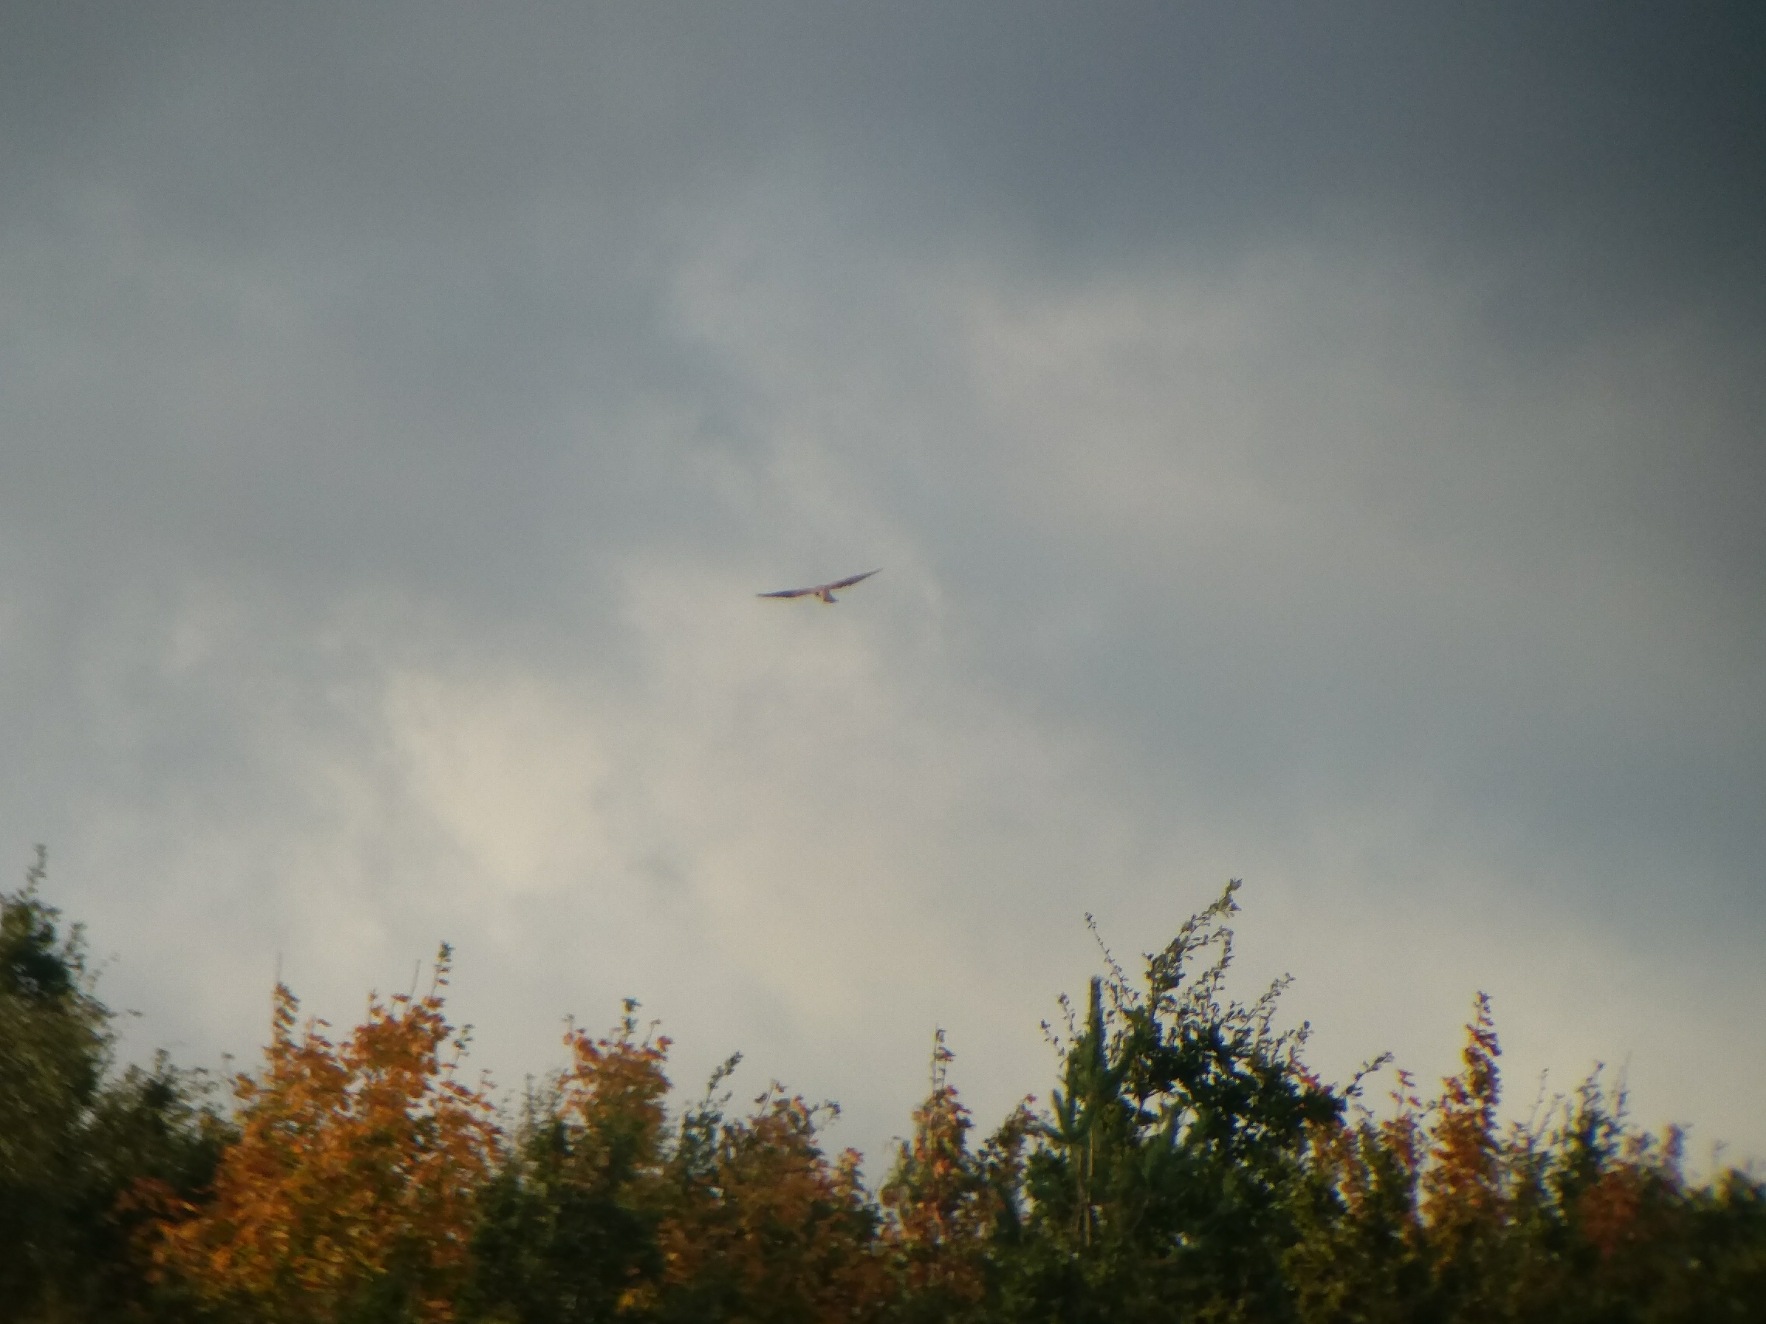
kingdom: Animalia
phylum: Chordata
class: Aves
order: Falconiformes
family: Falconidae
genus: Falco
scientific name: Falco tinnunculus
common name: Tårnfalk
